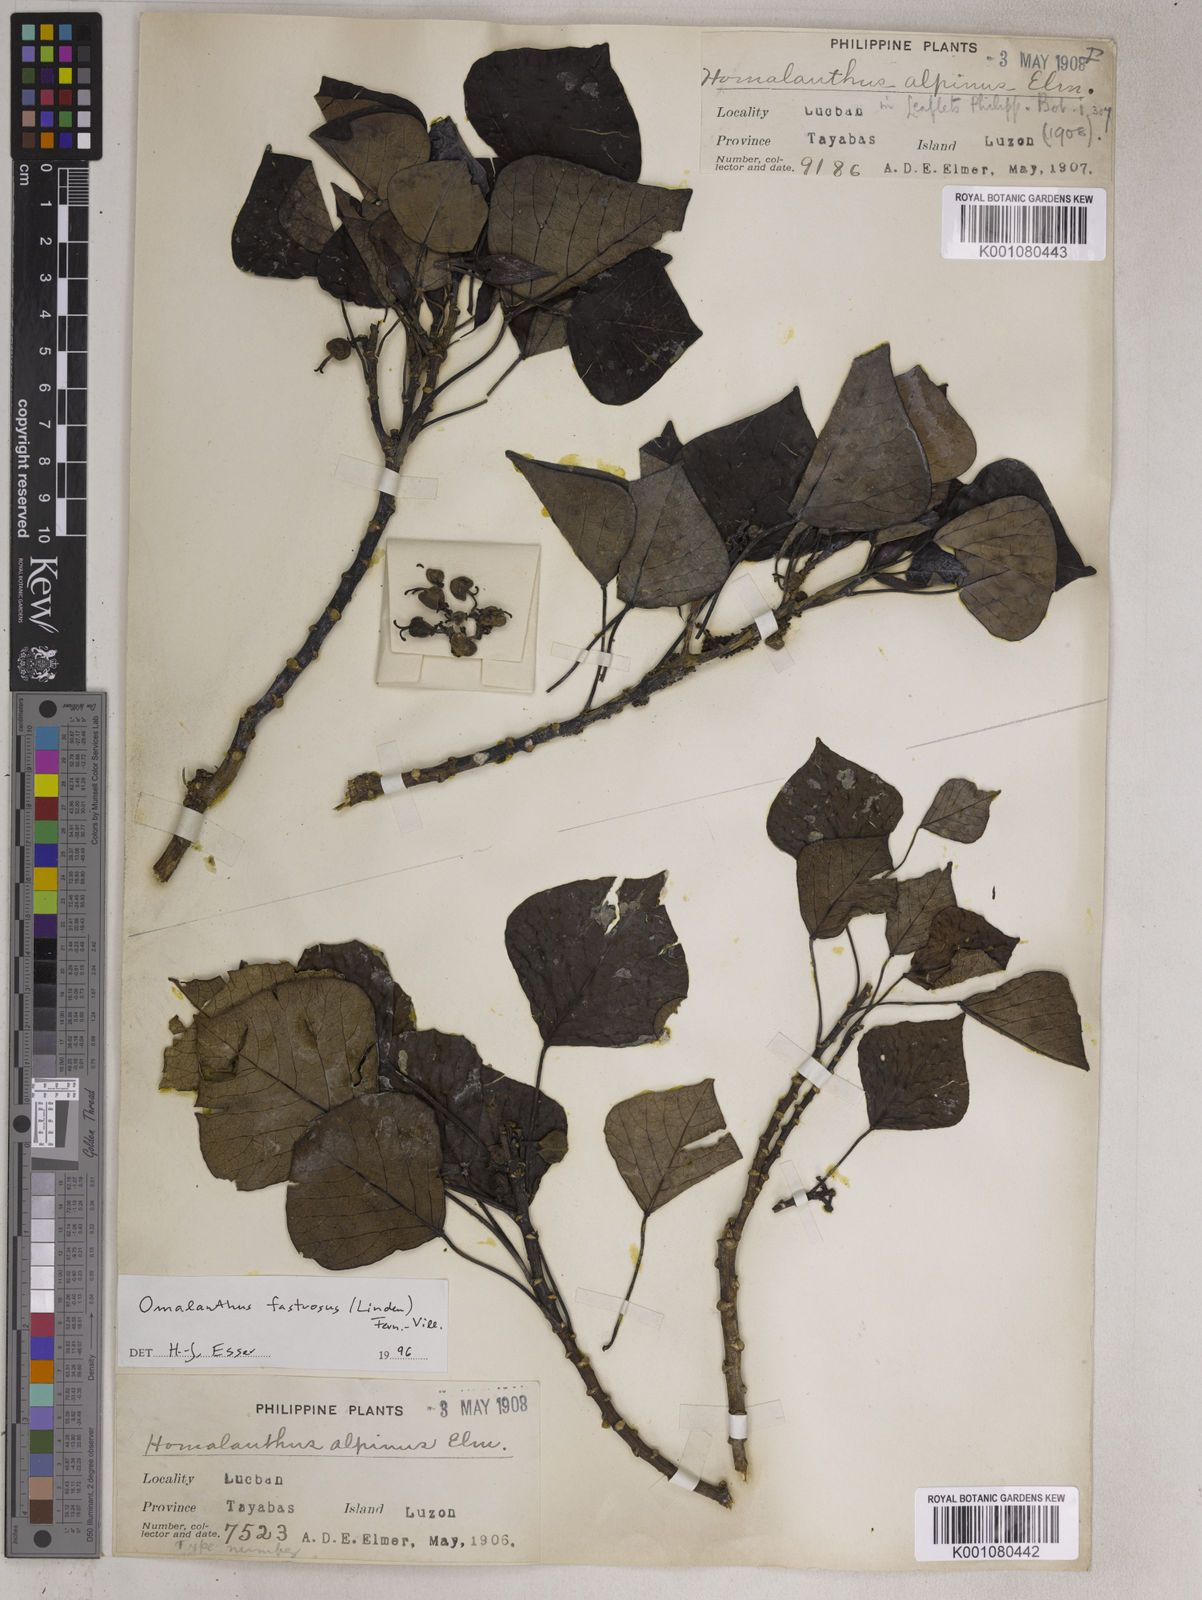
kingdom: Plantae
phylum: Tracheophyta
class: Magnoliopsida
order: Malpighiales
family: Euphorbiaceae
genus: Homalanthus
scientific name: Homalanthus fastuosus
